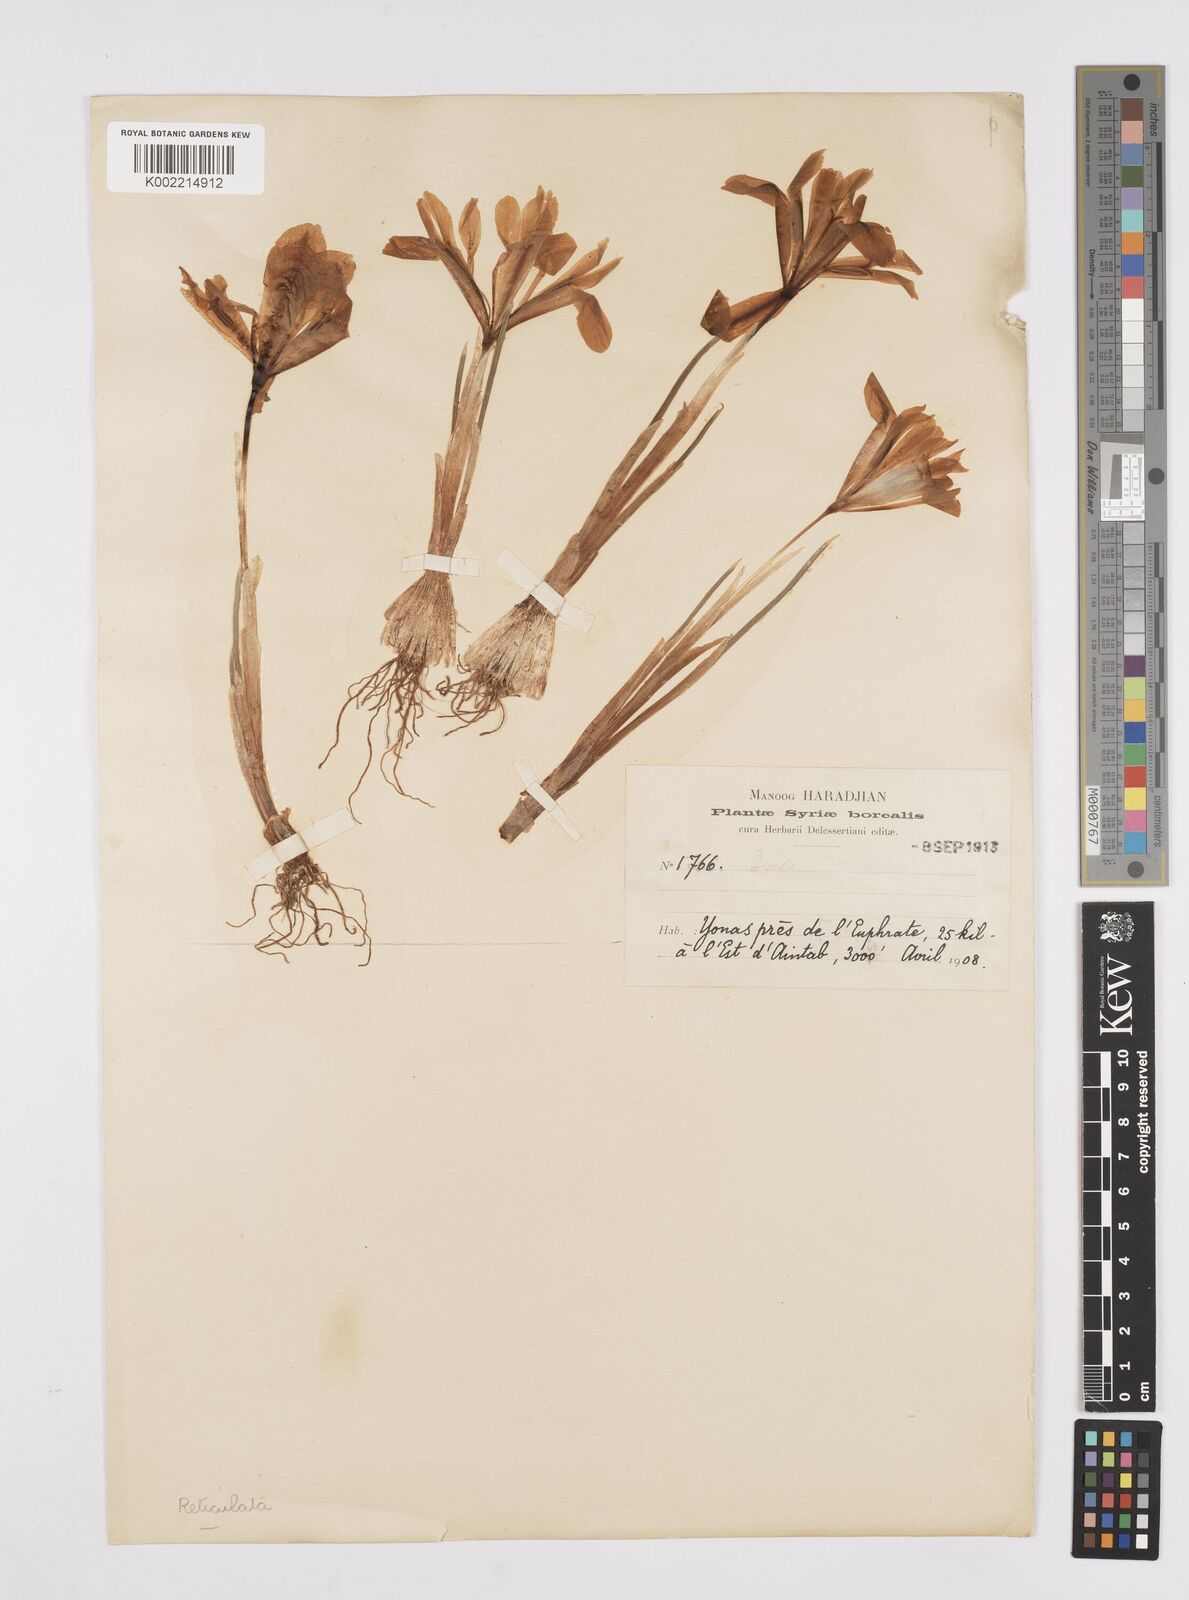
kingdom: Plantae
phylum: Tracheophyta
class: Liliopsida
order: Asparagales
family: Iridaceae
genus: Iris
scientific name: Iris histrio
